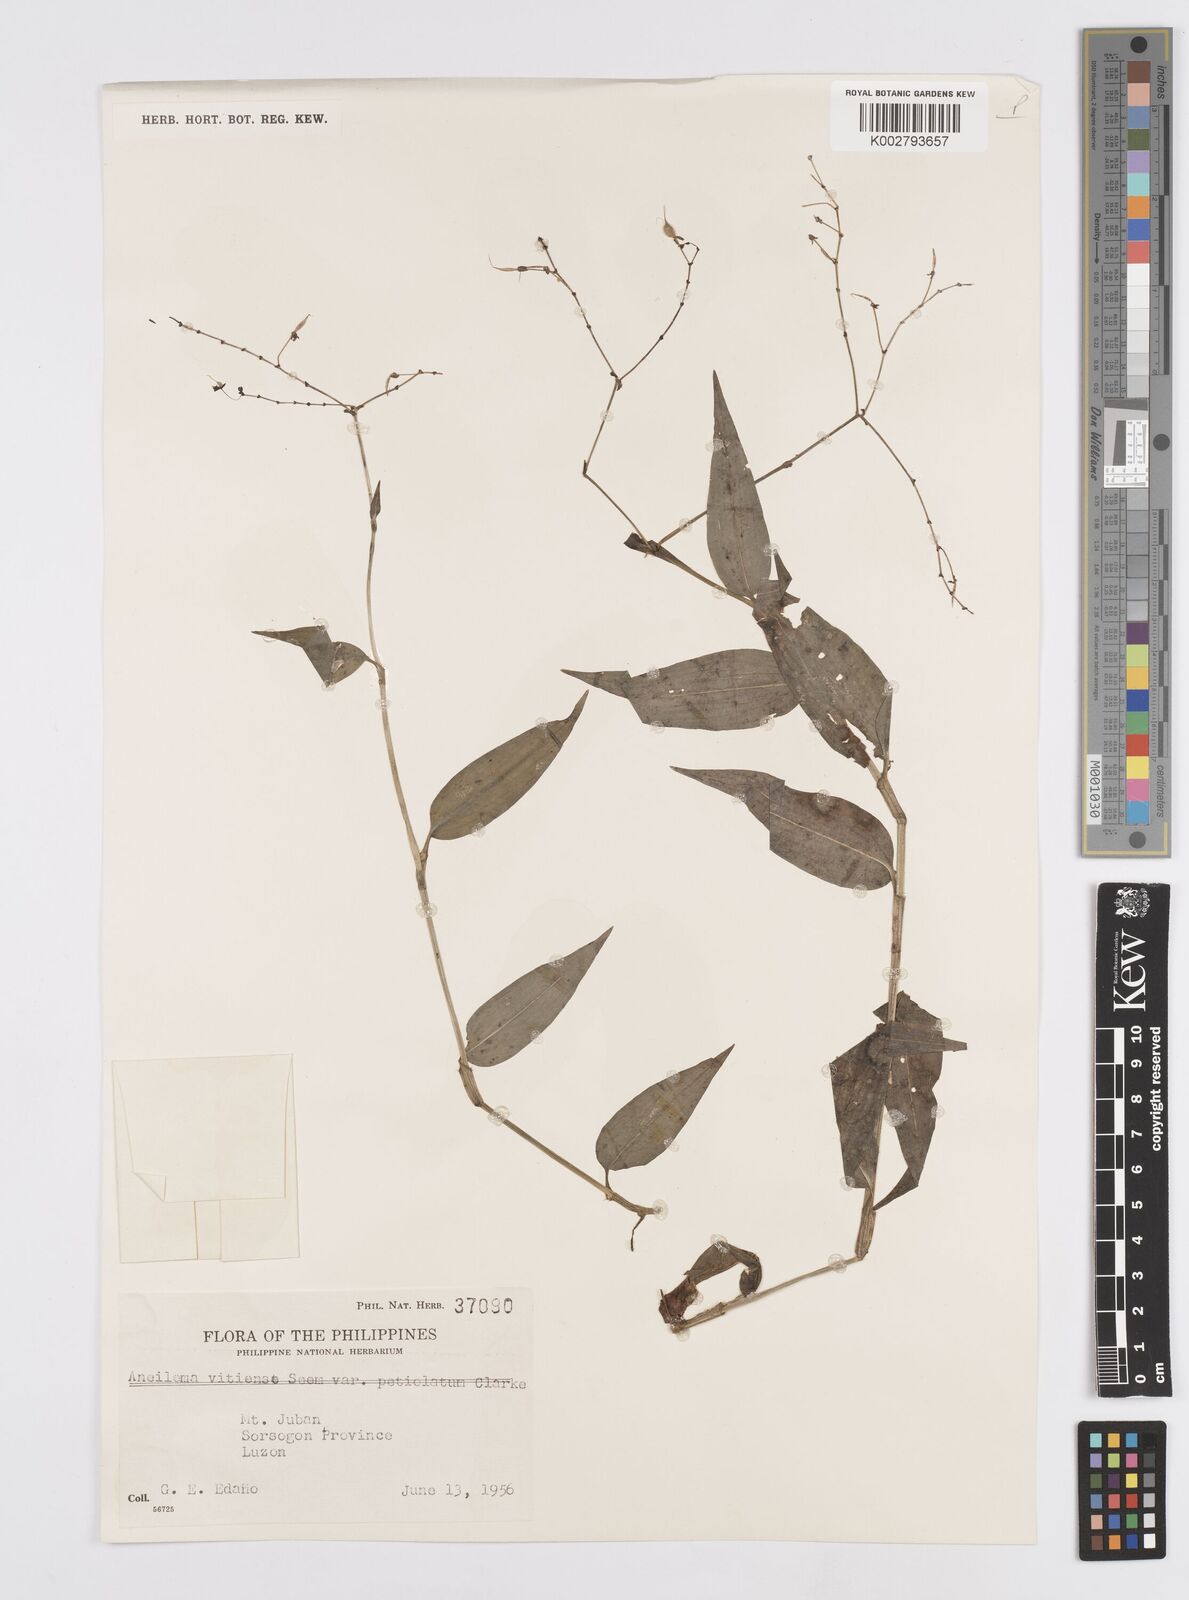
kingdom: Plantae
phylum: Tracheophyta
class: Liliopsida
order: Commelinales
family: Commelinaceae
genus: Murdannia
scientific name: Murdannia
